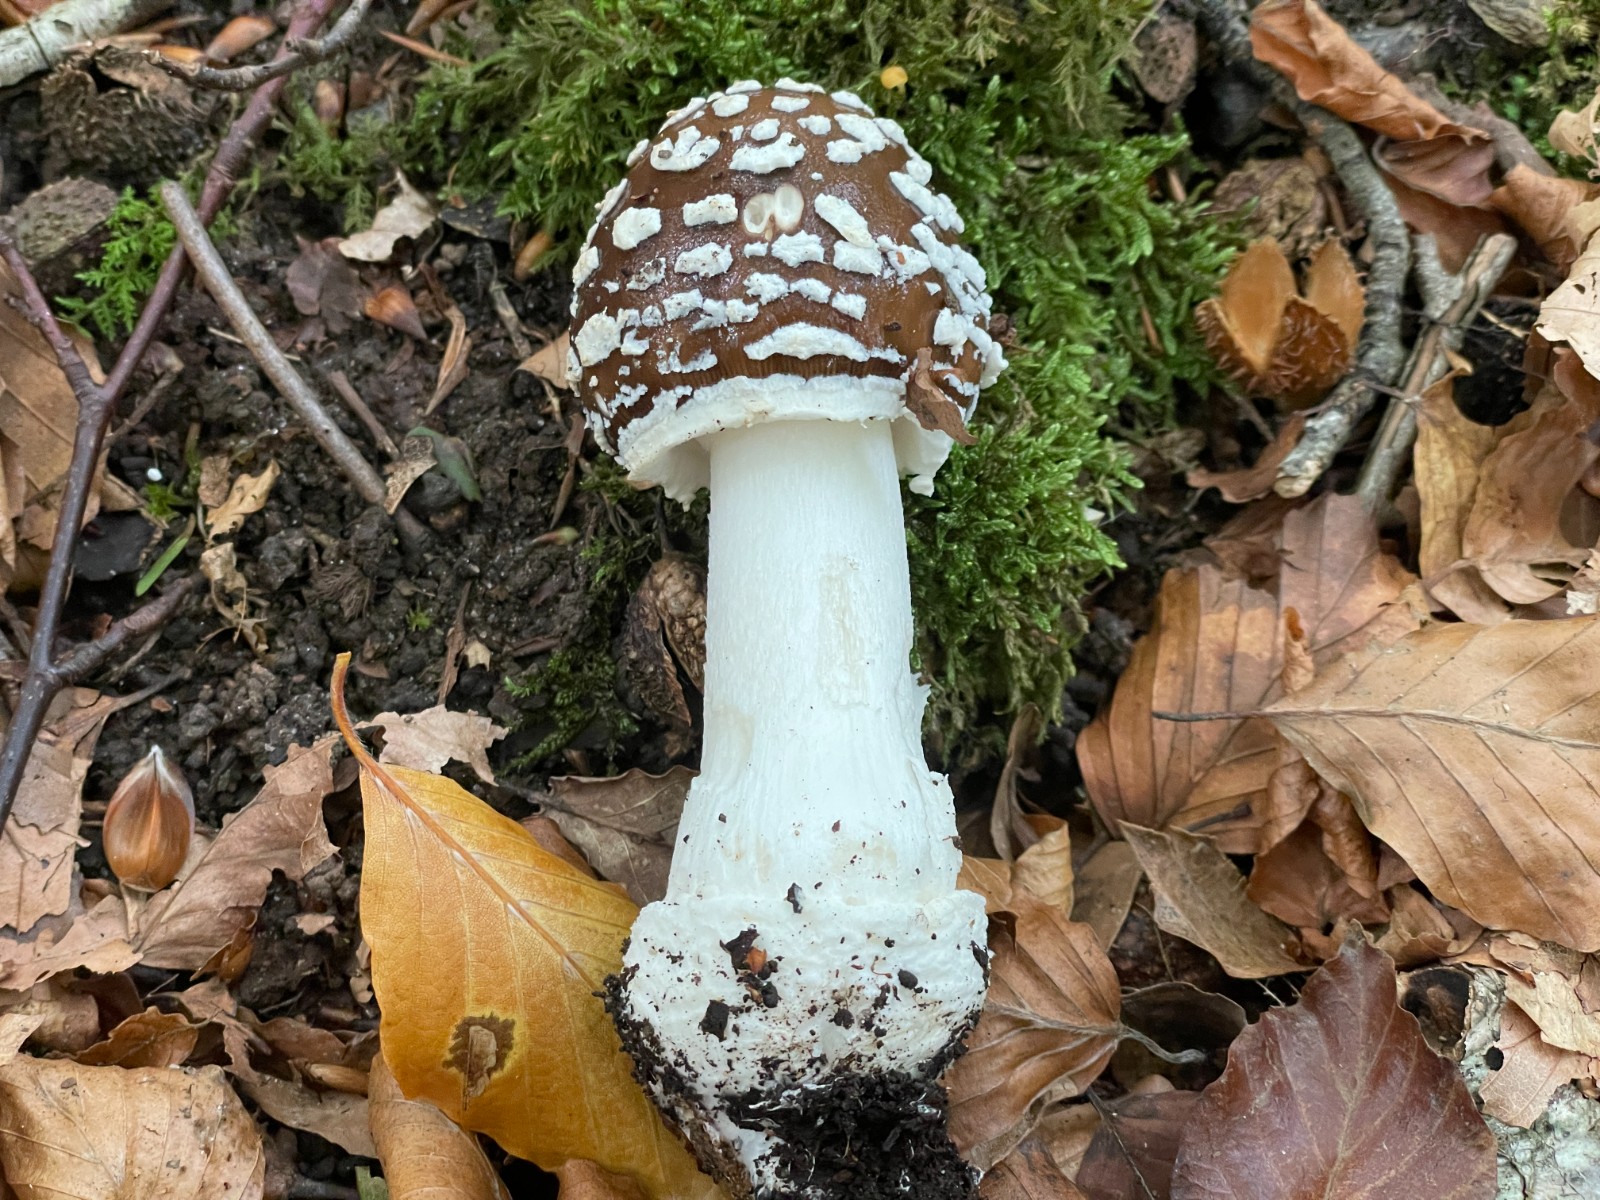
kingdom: Fungi
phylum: Basidiomycota
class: Agaricomycetes
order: Agaricales
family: Amanitaceae
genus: Amanita
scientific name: Amanita pantherina
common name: panter-fluesvamp
